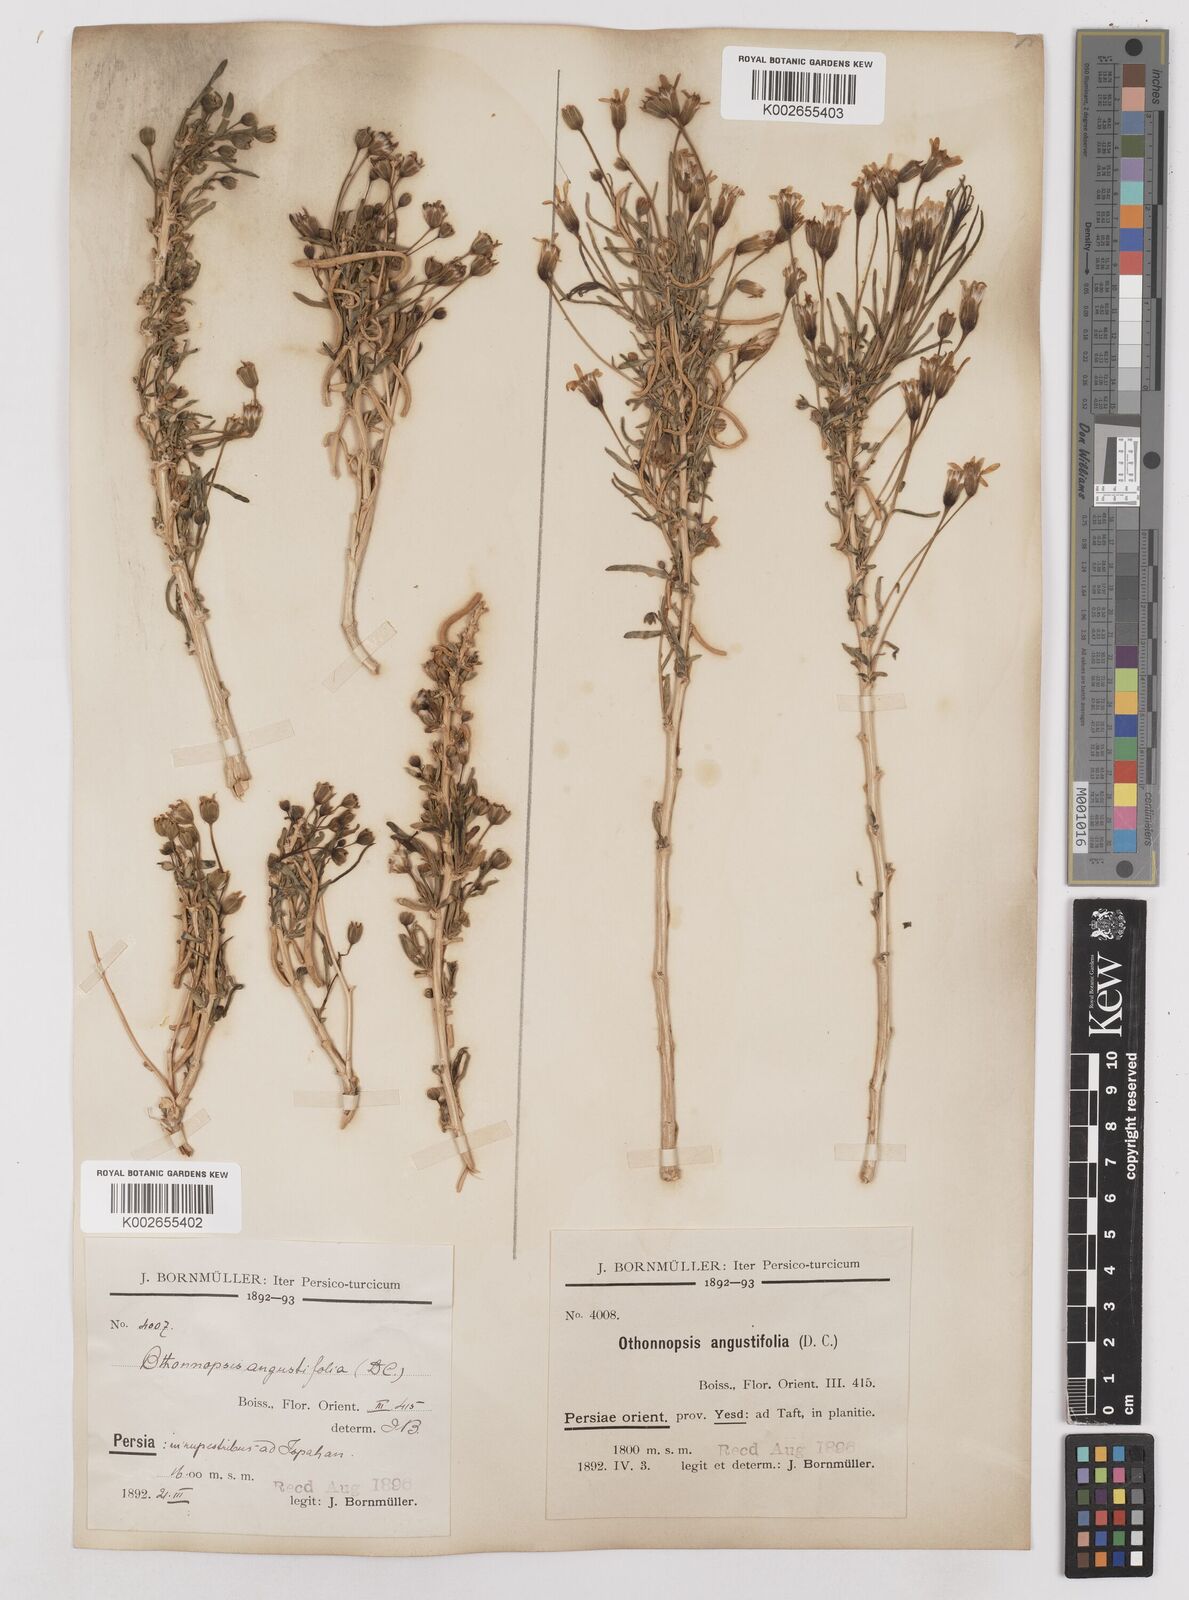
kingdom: Plantae
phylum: Tracheophyta
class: Magnoliopsida
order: Asterales
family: Asteraceae
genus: Hertia
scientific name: Hertia angustifolia
